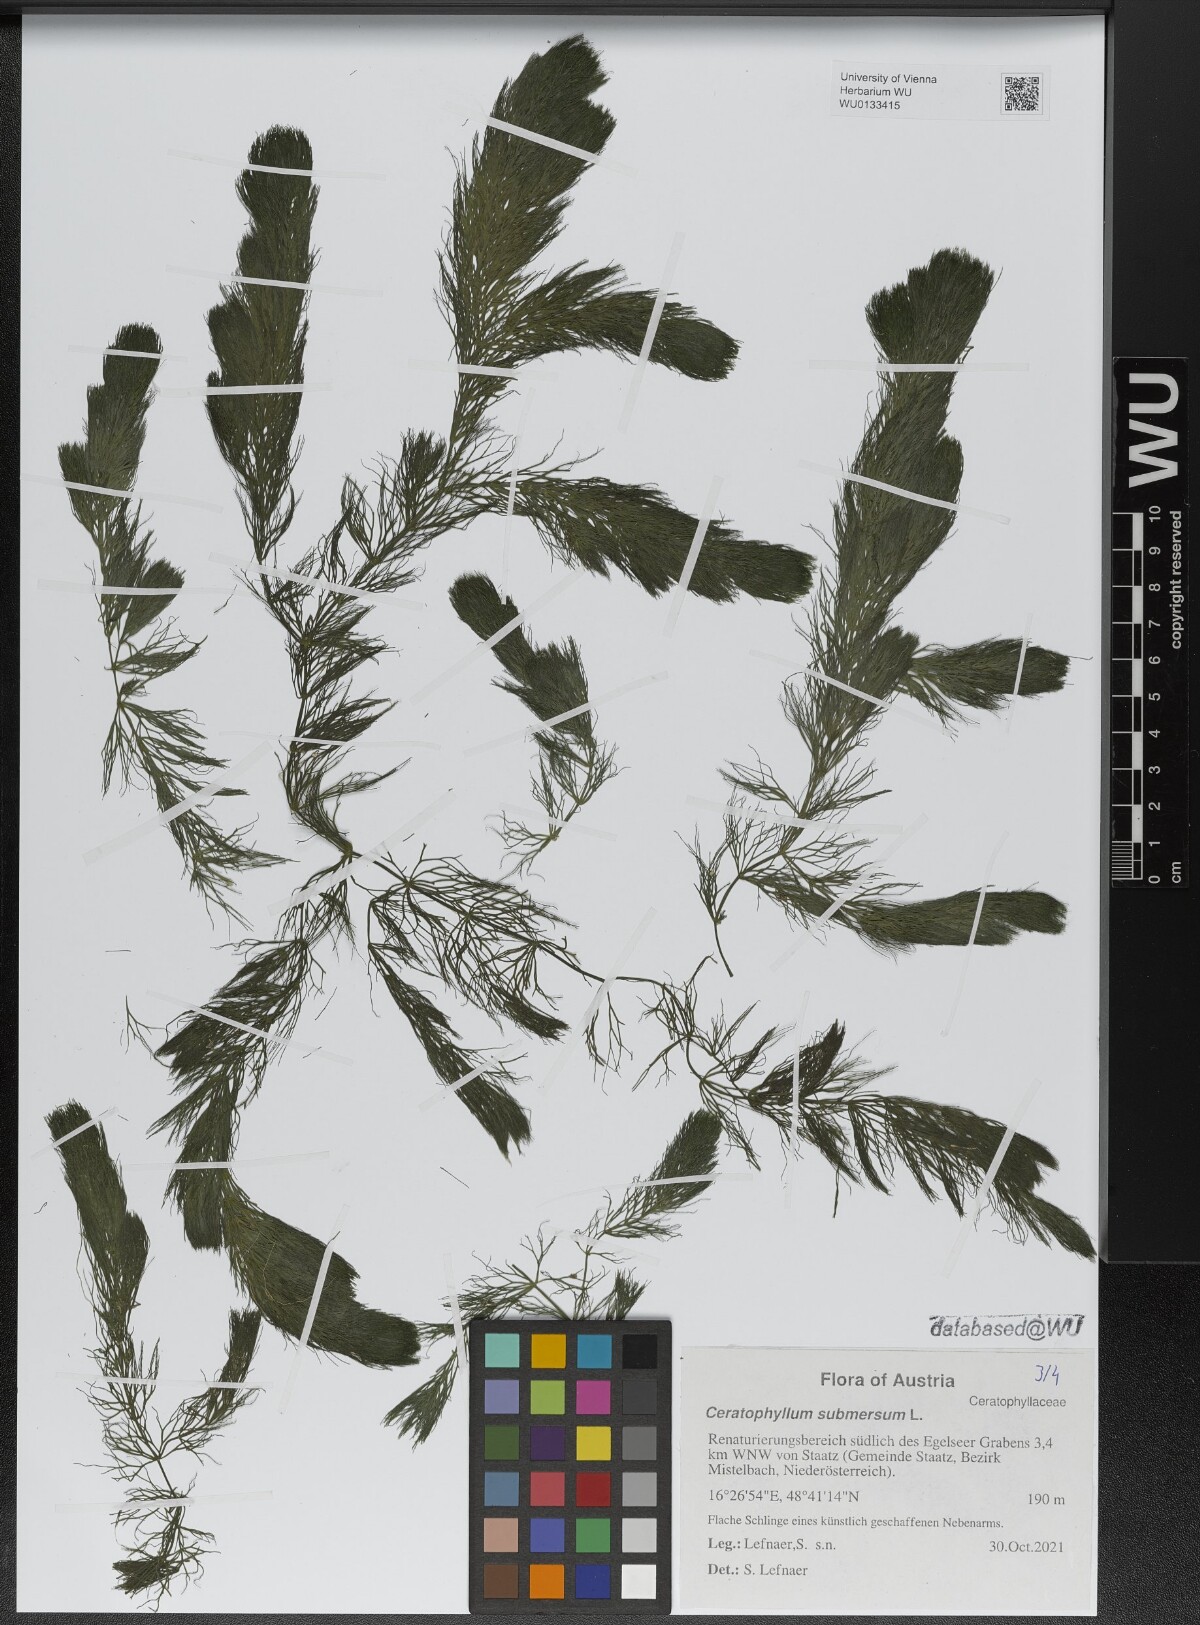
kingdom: Plantae
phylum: Tracheophyta
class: Magnoliopsida
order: Ceratophyllales
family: Ceratophyllaceae
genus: Ceratophyllum
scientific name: Ceratophyllum submersum
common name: Soft hornwort
